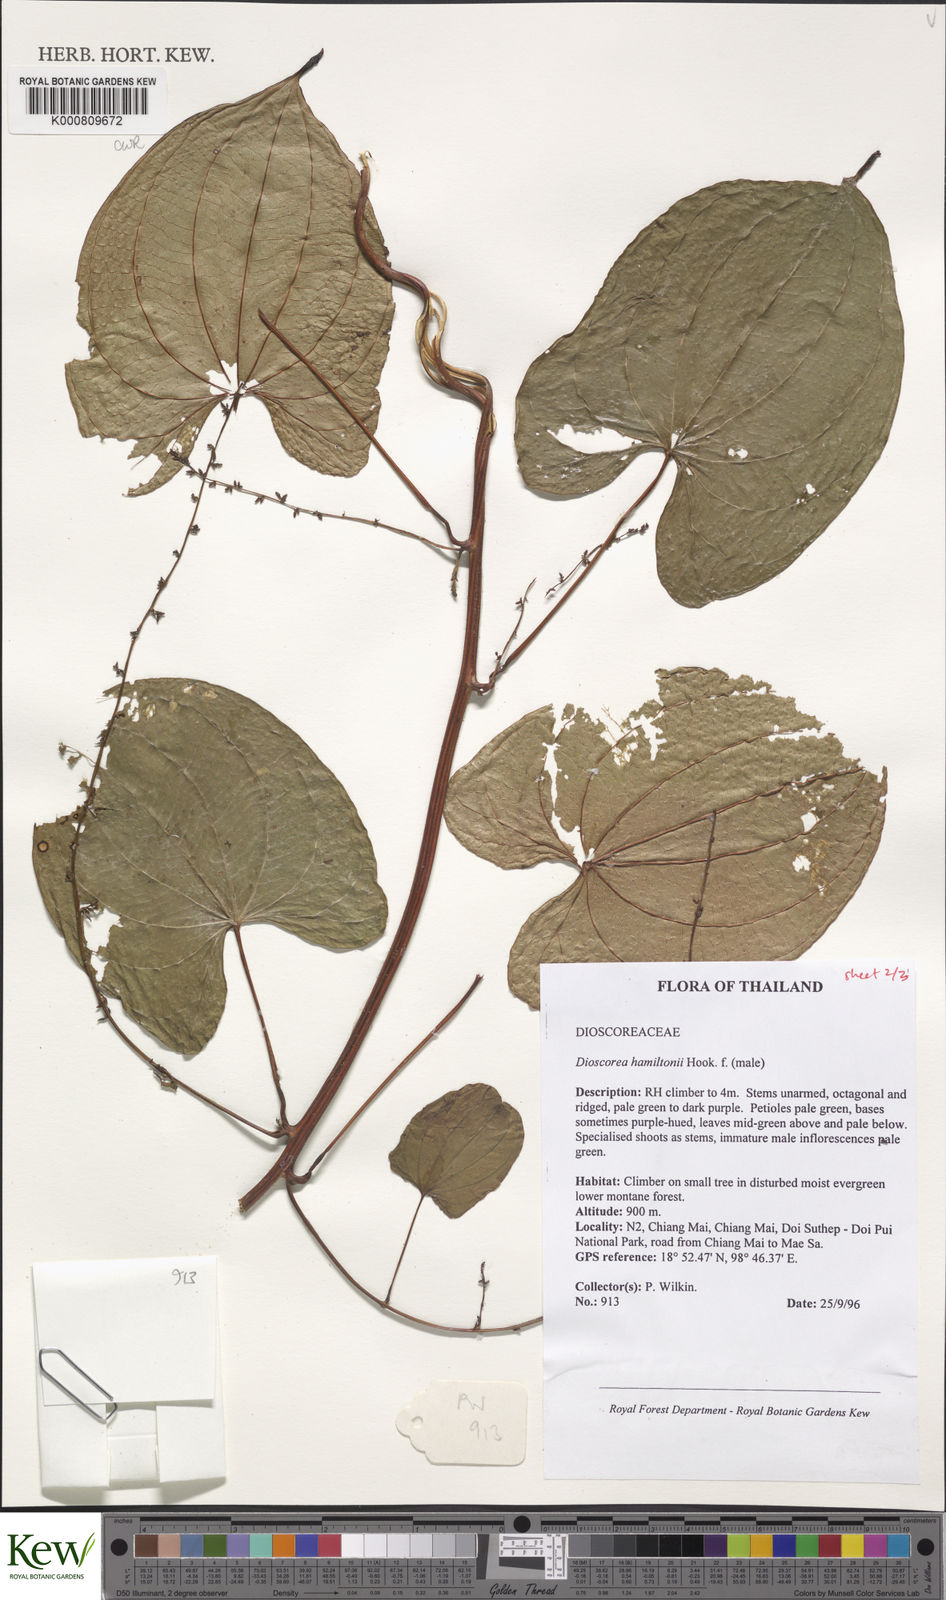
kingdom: Plantae
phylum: Tracheophyta
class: Liliopsida
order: Dioscoreales
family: Dioscoreaceae
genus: Dioscorea
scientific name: Dioscorea hamiltonii
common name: Mountain yam
